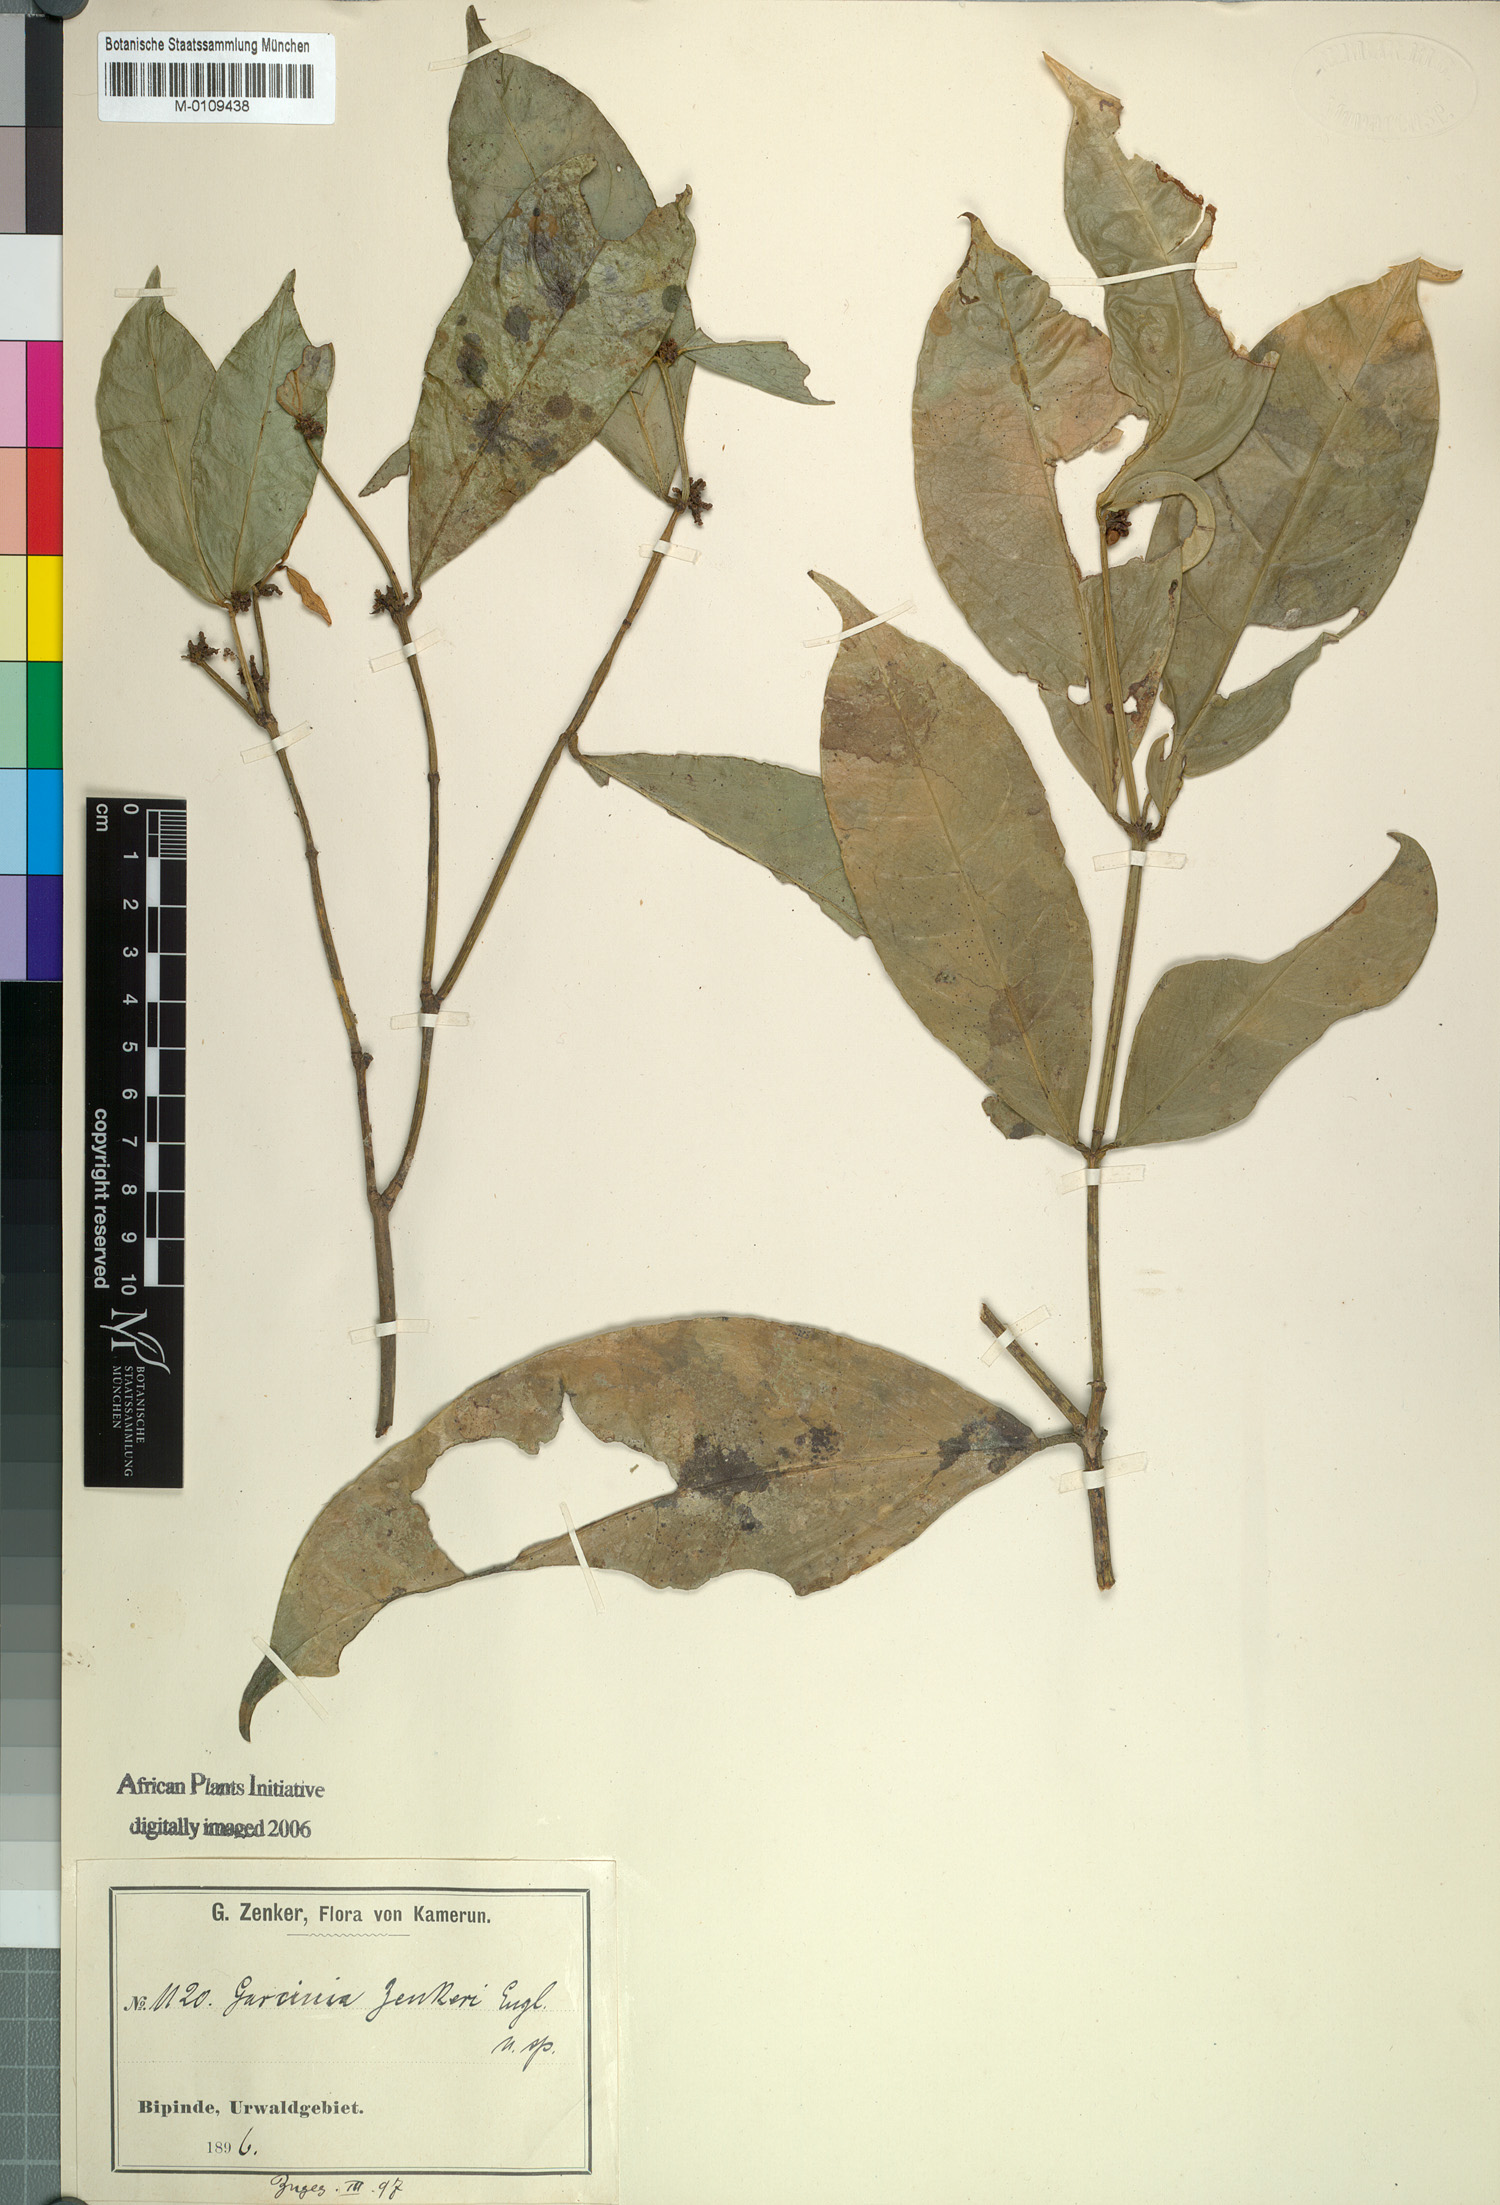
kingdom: Plantae
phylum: Tracheophyta
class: Magnoliopsida
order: Malpighiales
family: Clusiaceae
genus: Garcinia
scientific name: Garcinia densivenia
